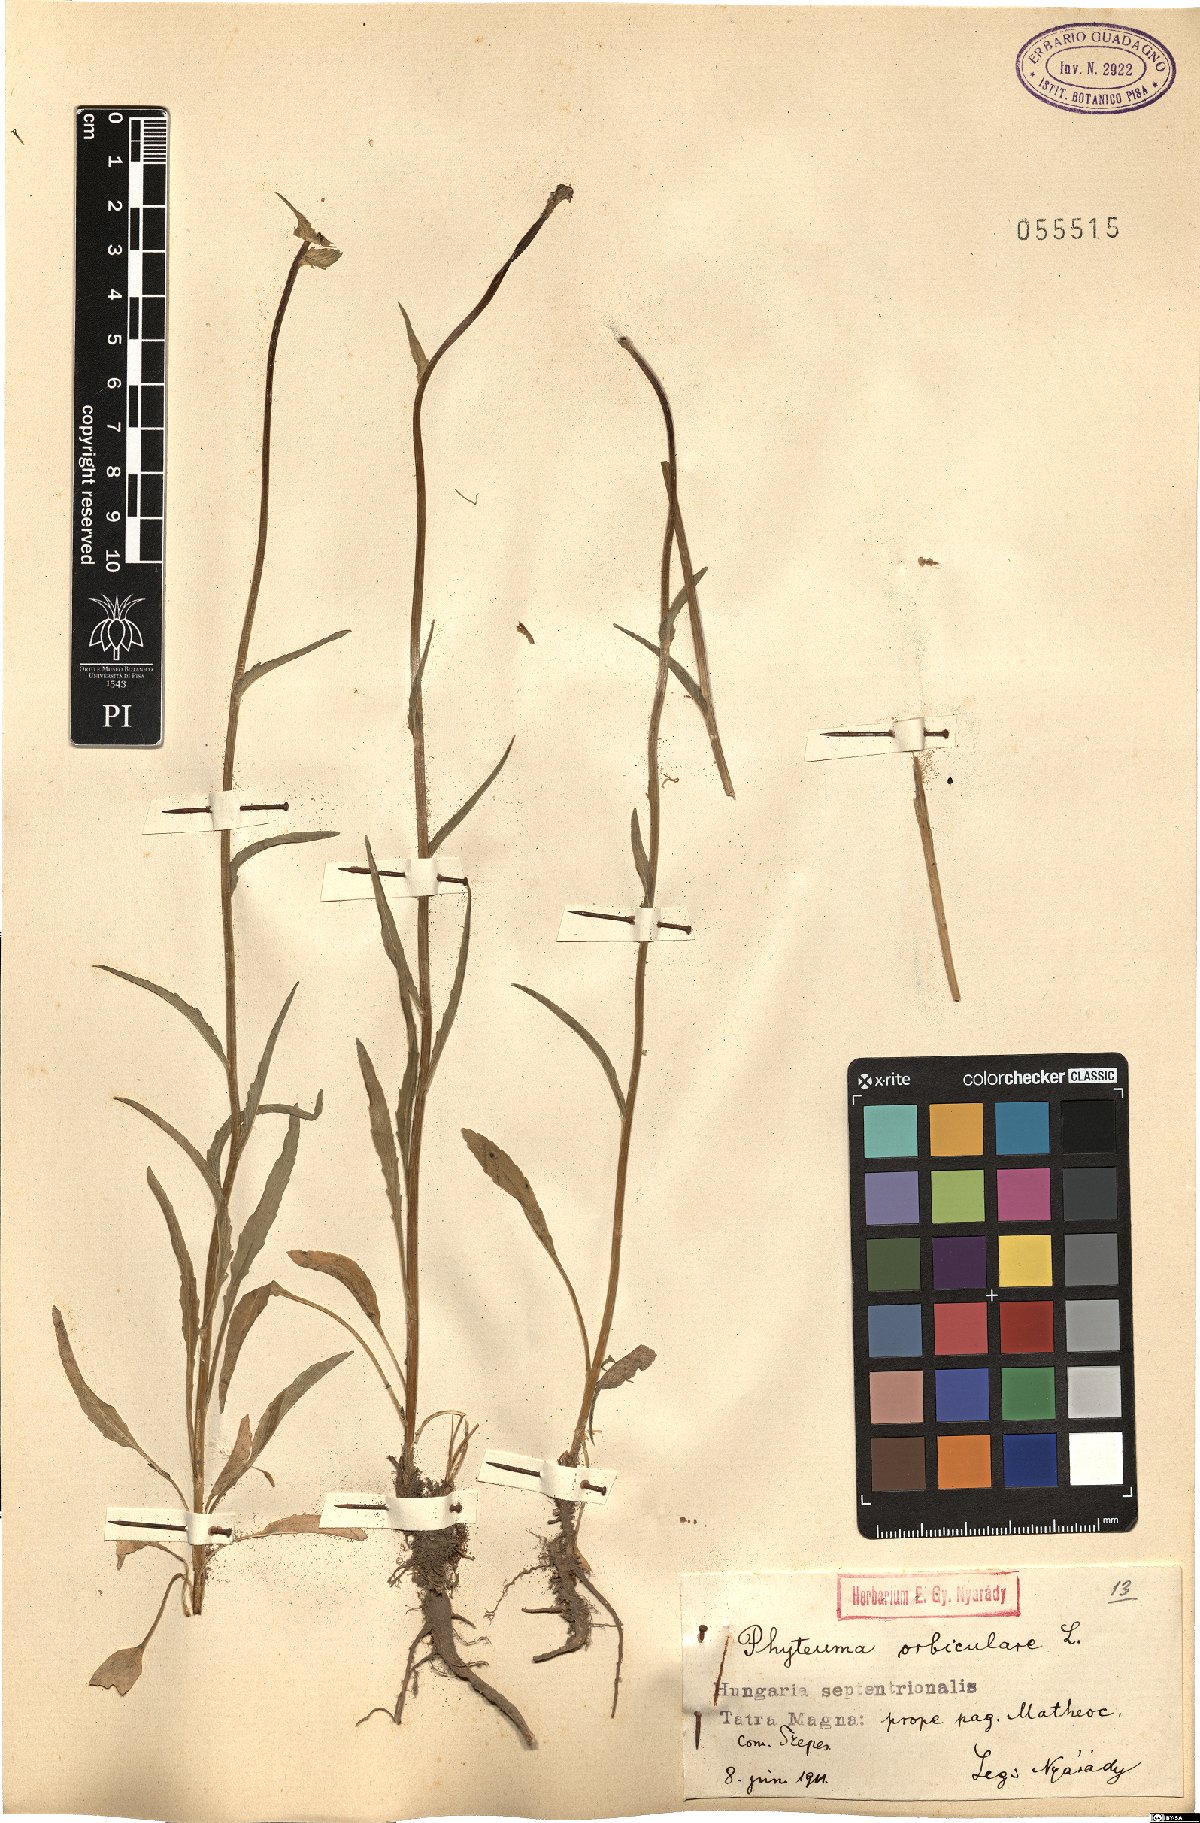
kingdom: Plantae
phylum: Tracheophyta
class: Magnoliopsida
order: Asterales
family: Campanulaceae
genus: Phyteuma
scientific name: Phyteuma orbiculare
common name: Round-headed rampion
